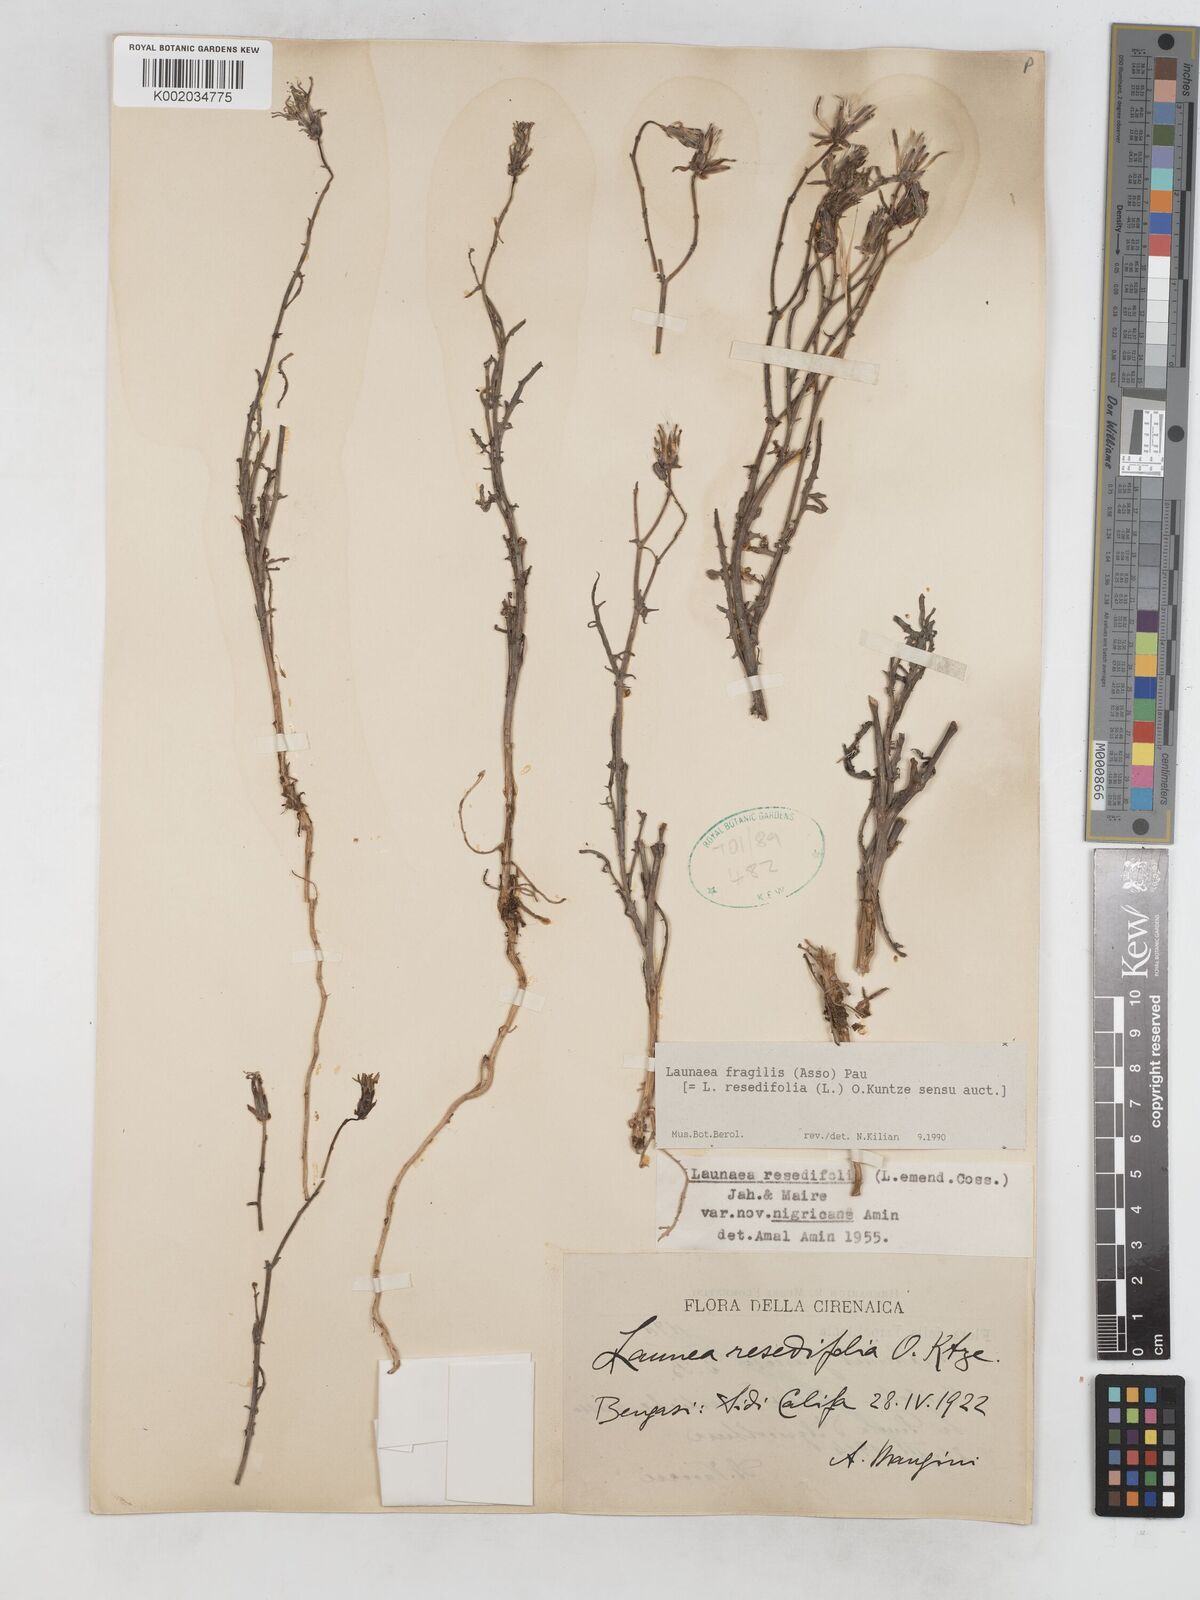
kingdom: Plantae
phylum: Tracheophyta
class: Magnoliopsida
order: Asterales
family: Asteraceae
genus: Launaea
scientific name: Launaea fragilis
